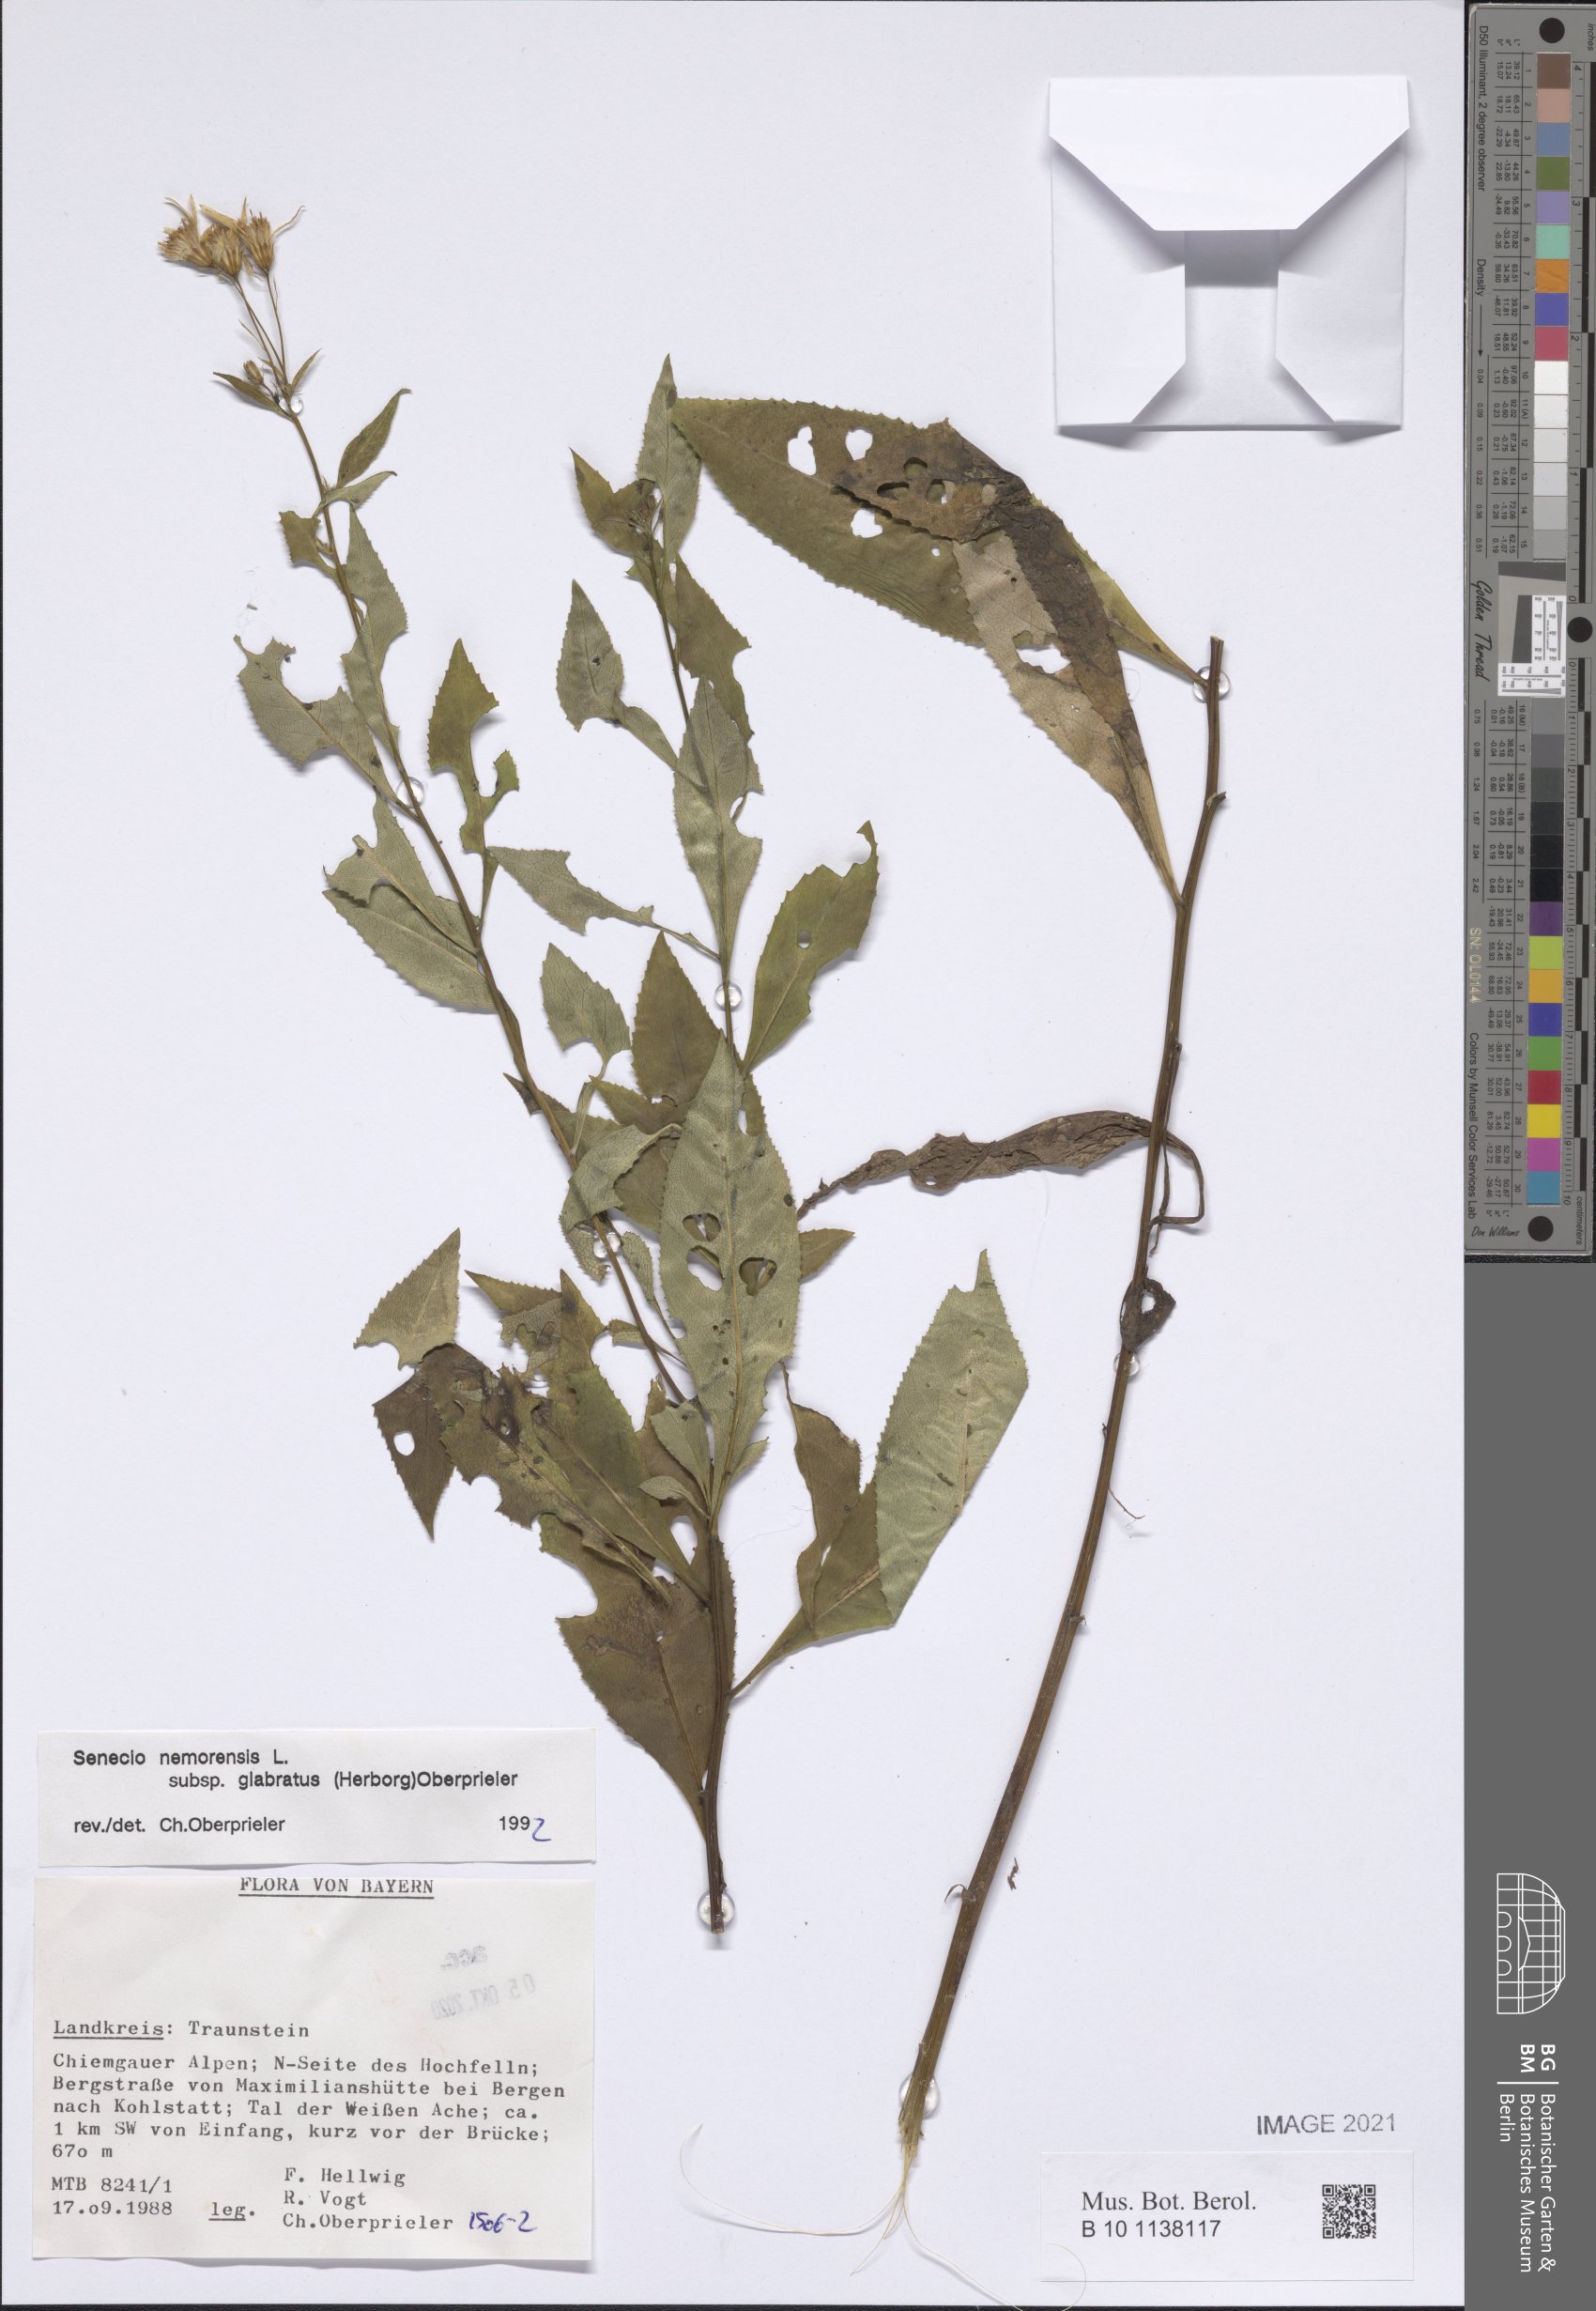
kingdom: Plantae
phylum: Tracheophyta
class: Magnoliopsida
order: Asterales
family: Asteraceae
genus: Senecio
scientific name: Senecio germanicus
